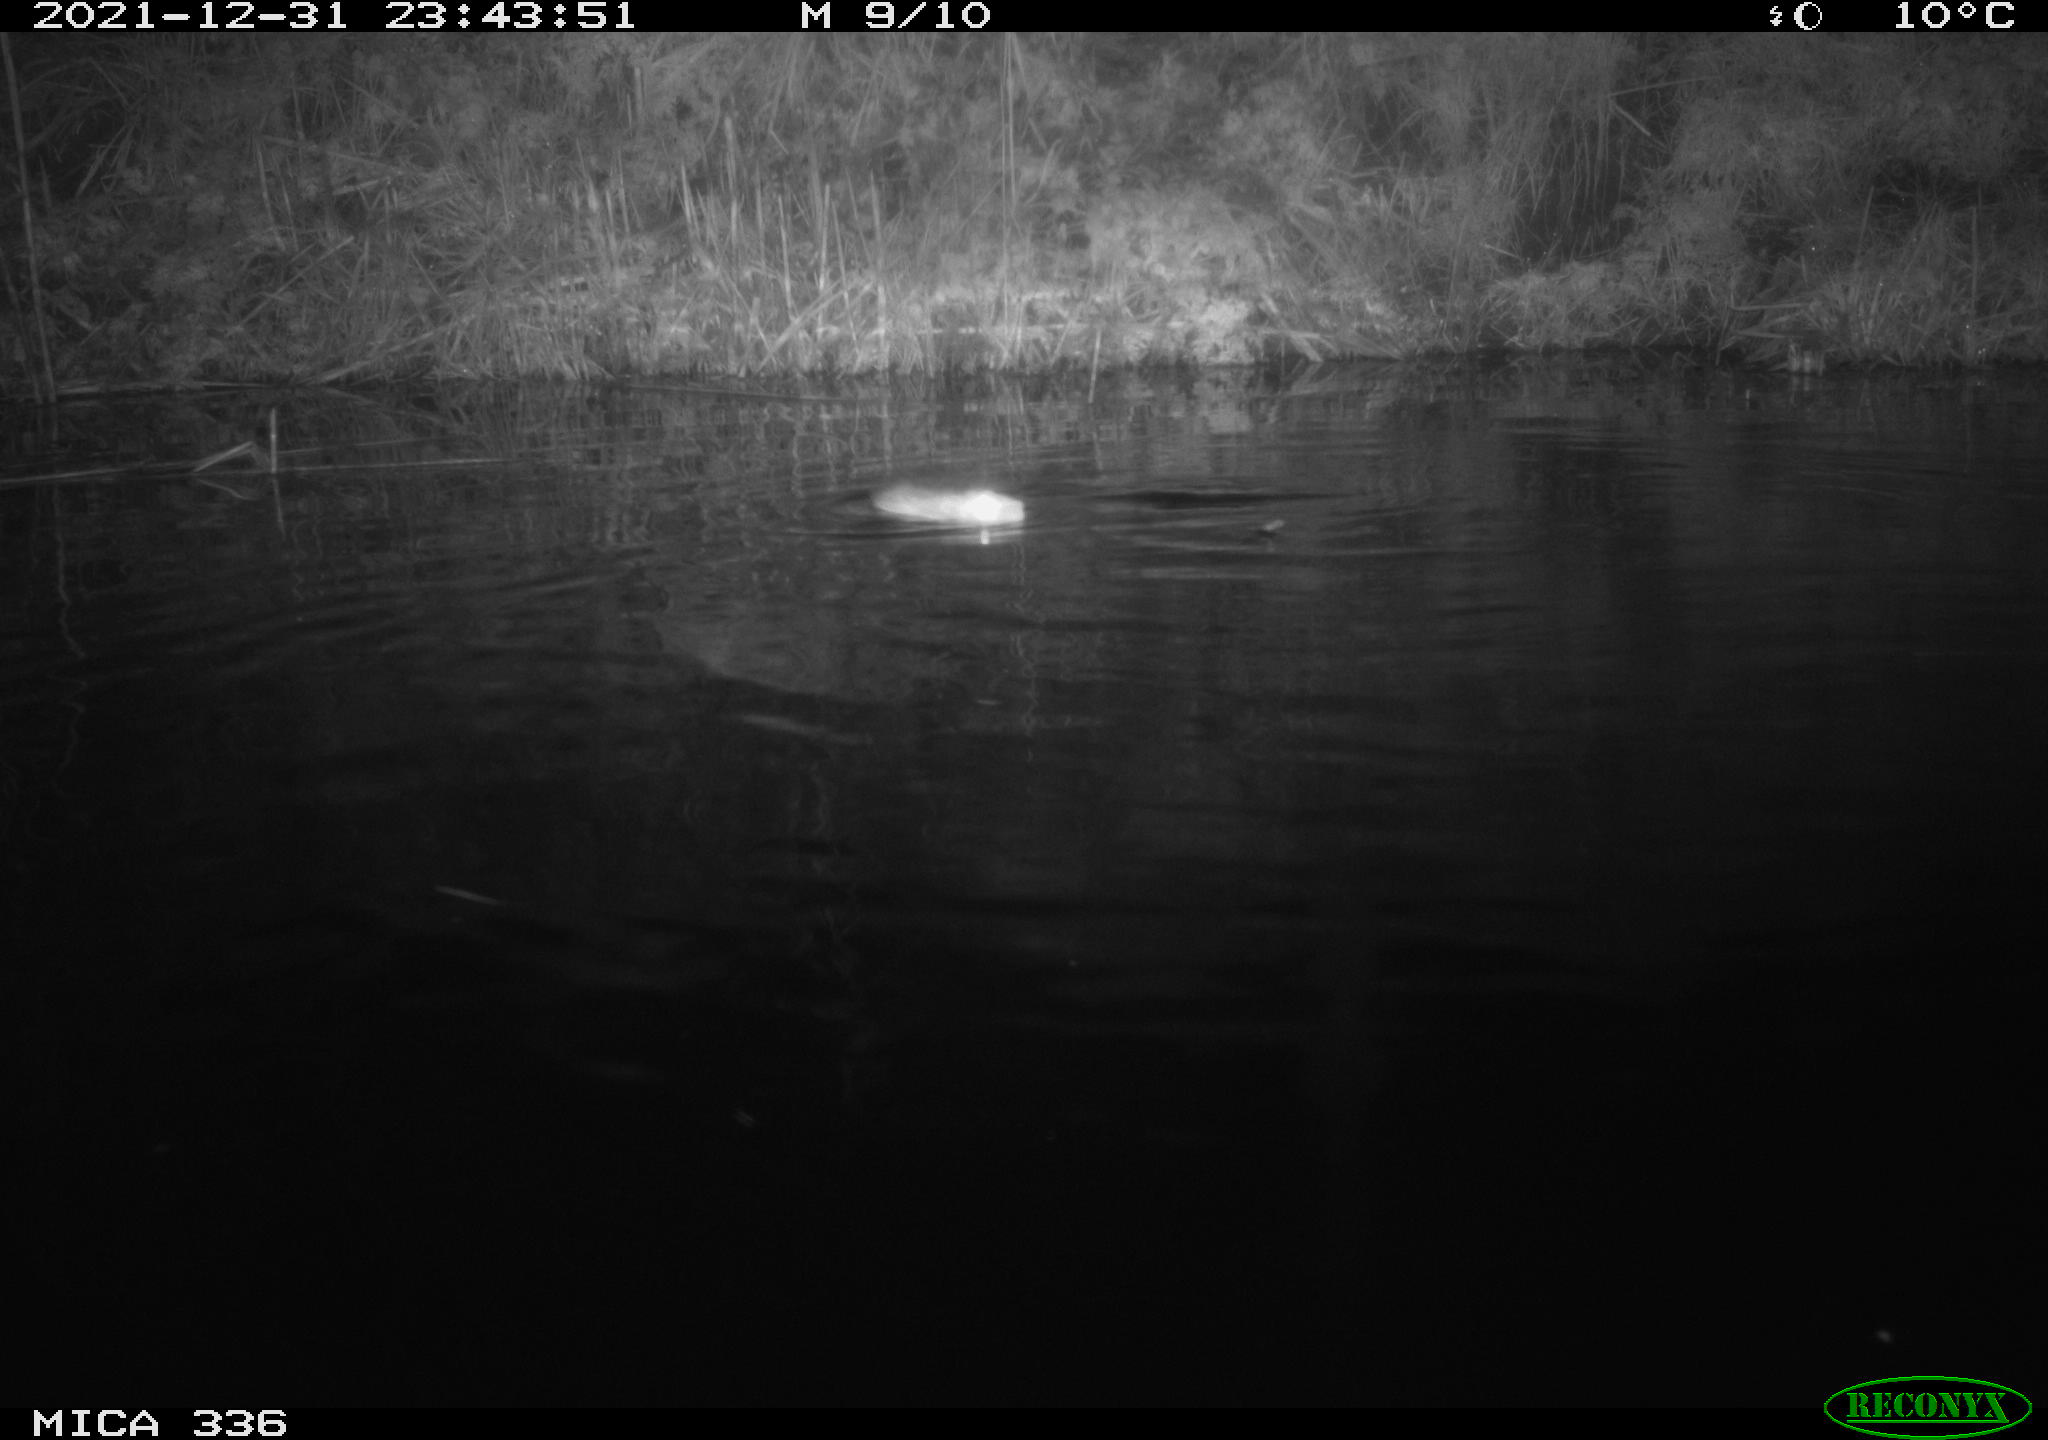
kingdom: Animalia
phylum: Chordata
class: Mammalia
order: Rodentia
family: Muridae
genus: Rattus
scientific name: Rattus norvegicus
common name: Brown rat
